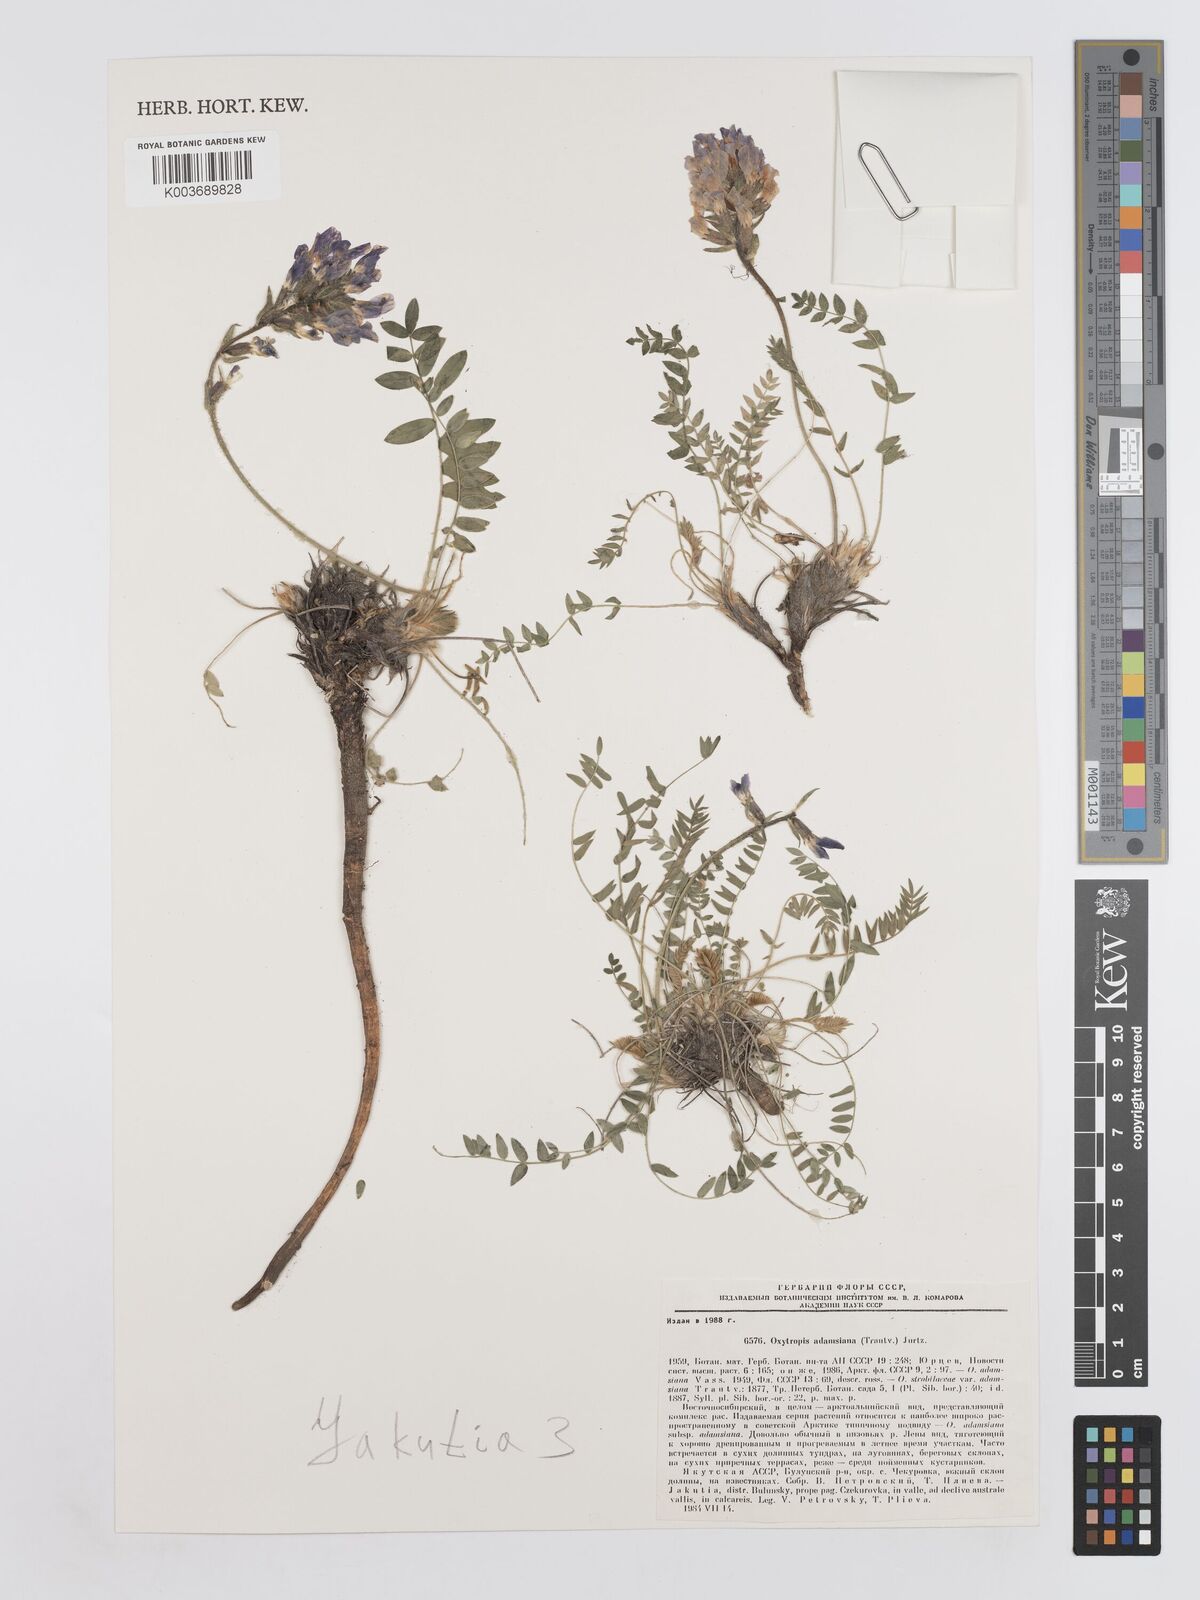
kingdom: Plantae
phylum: Tracheophyta
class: Magnoliopsida
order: Fabales
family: Fabaceae
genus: Oxytropis
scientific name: Oxytropis adamsiana
